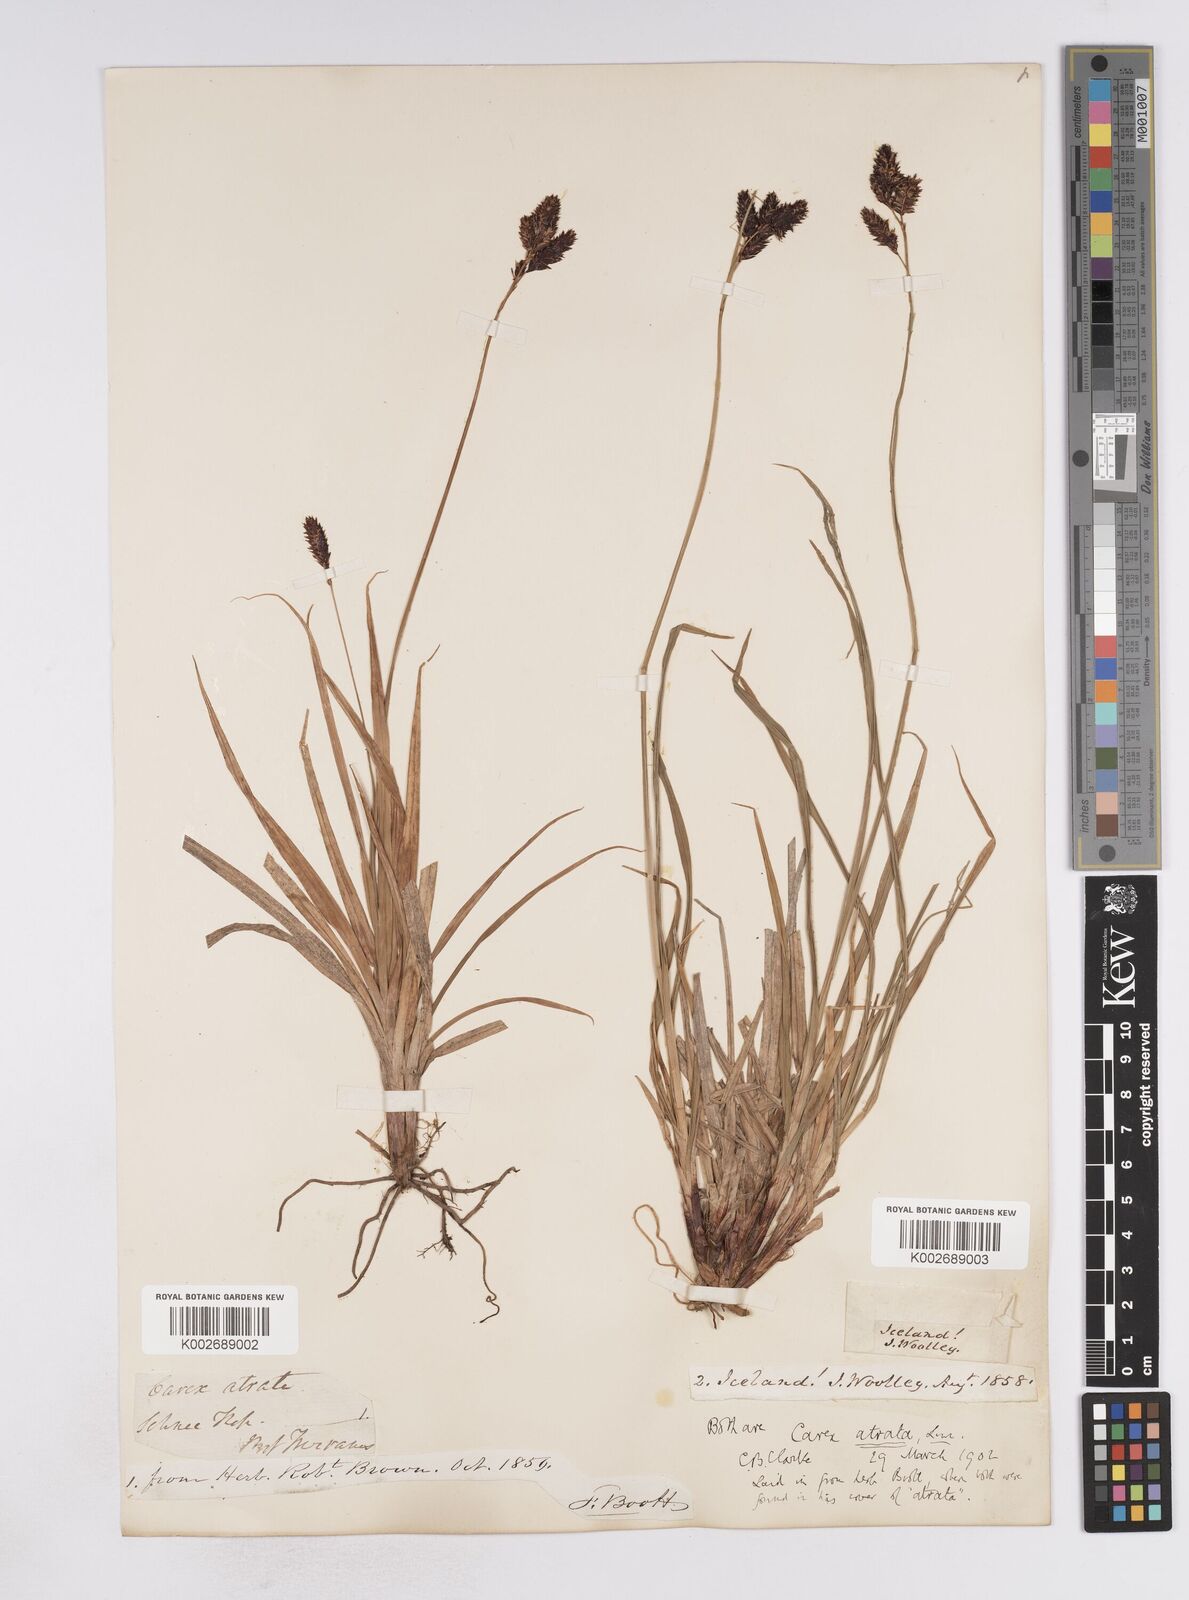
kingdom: Plantae
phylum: Tracheophyta
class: Liliopsida
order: Poales
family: Cyperaceae
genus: Carex
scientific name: Carex atrata
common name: Black alpine sedge
